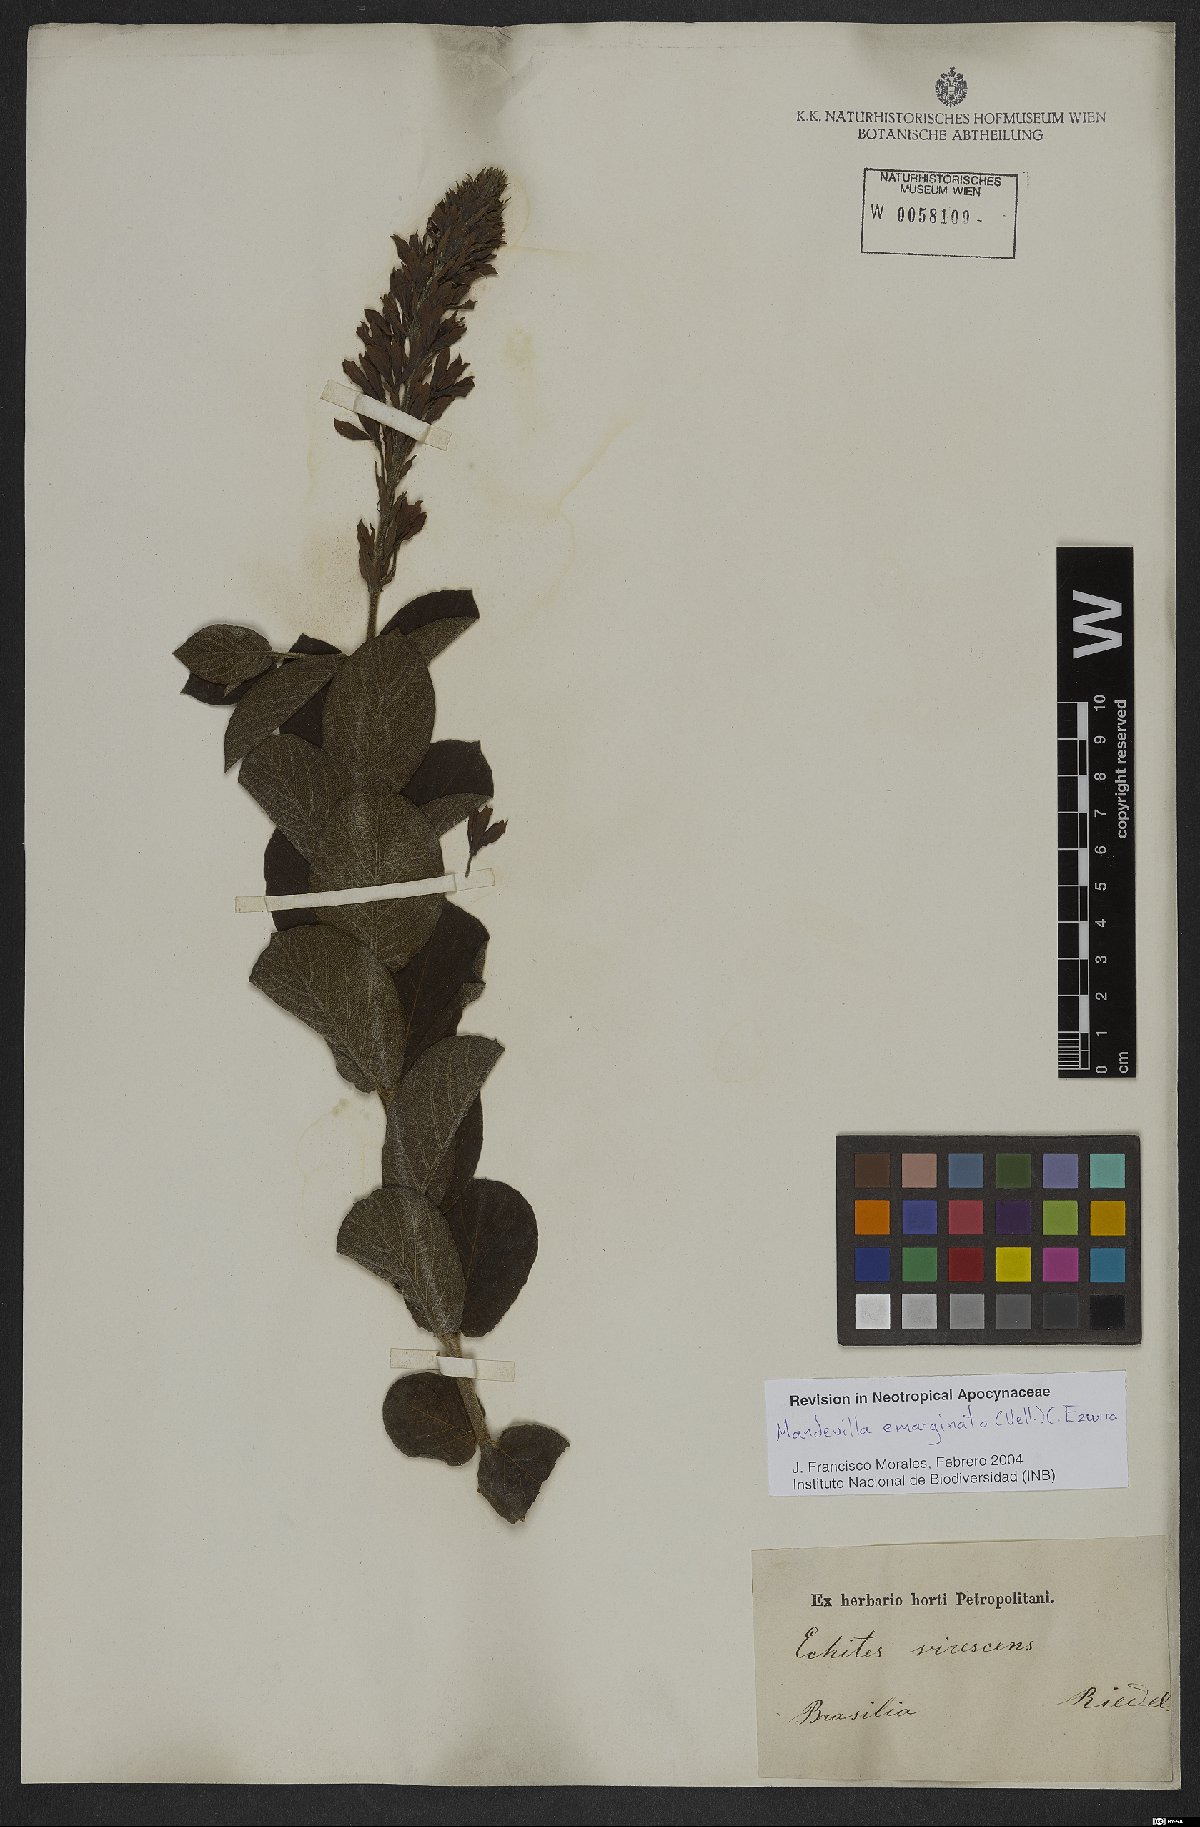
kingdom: Plantae
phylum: Tracheophyta
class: Magnoliopsida
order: Gentianales
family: Apocynaceae
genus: Mandevilla
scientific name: Mandevilla emarginata
